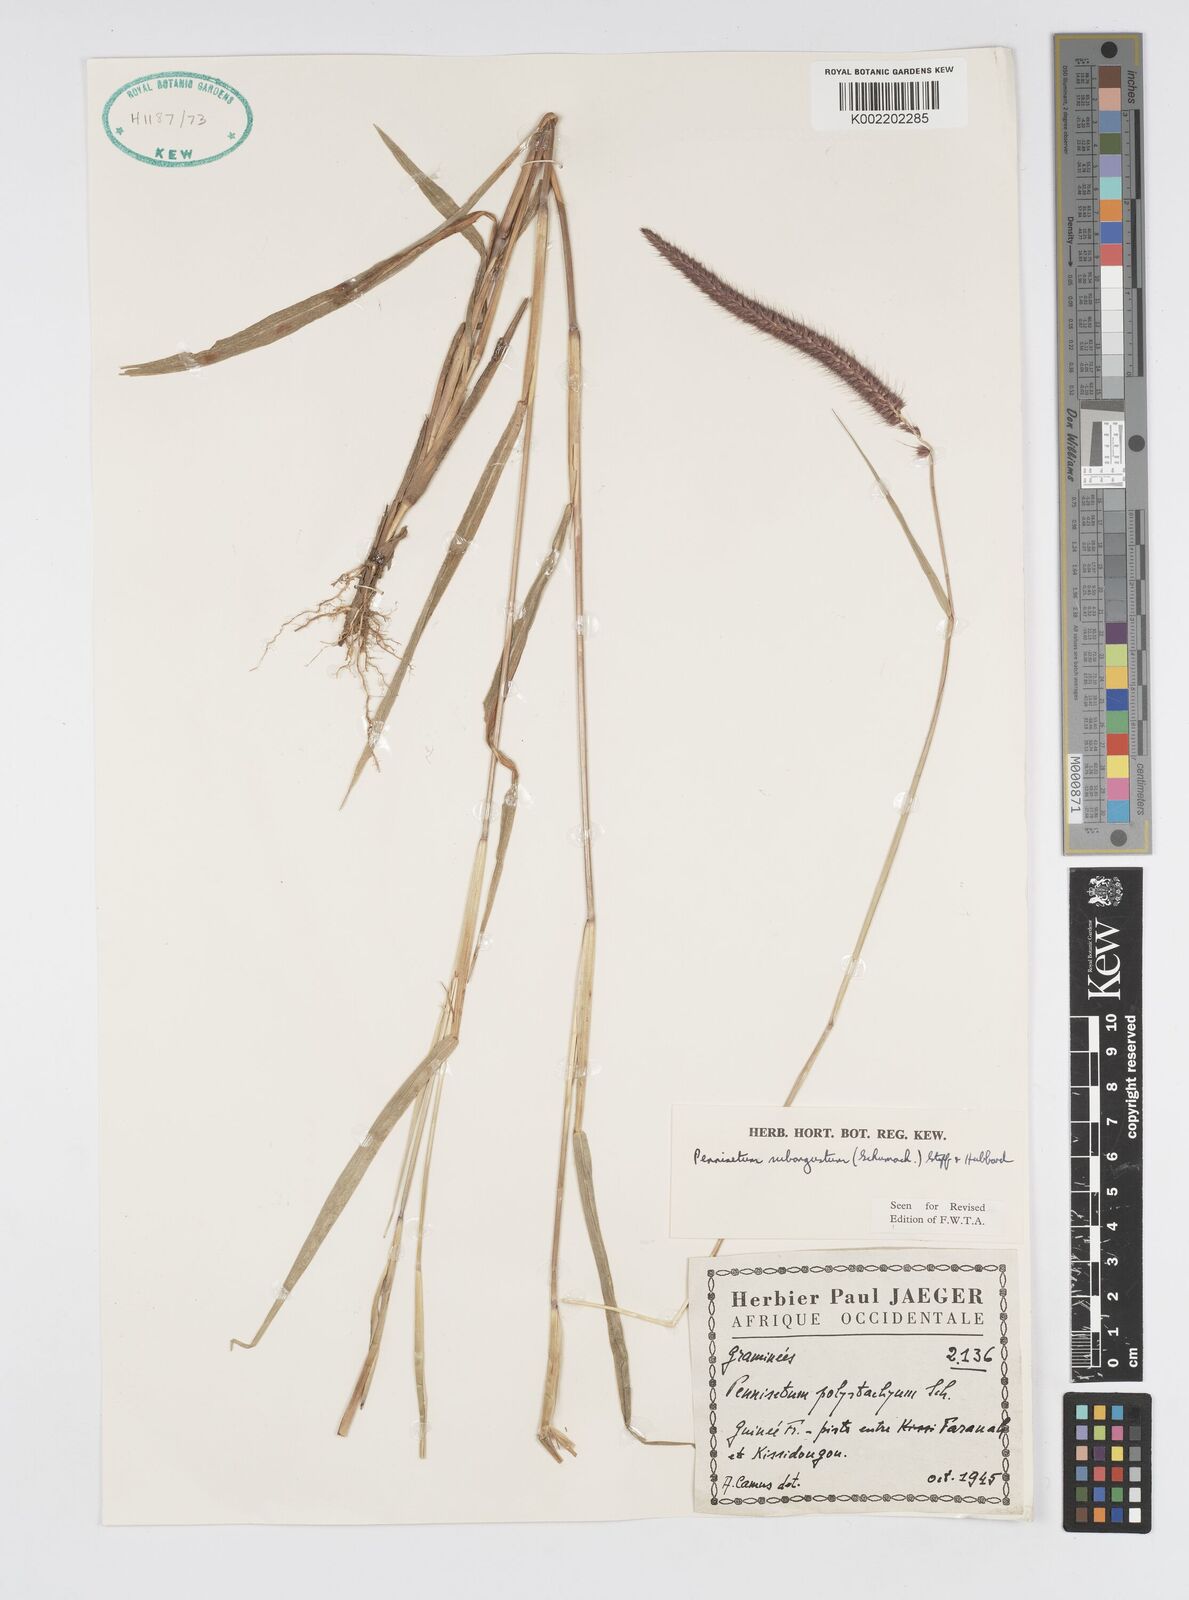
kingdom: Plantae
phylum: Tracheophyta
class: Liliopsida
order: Poales
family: Poaceae
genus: Setaria
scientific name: Setaria parviflora
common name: Knotroot bristle-grass
